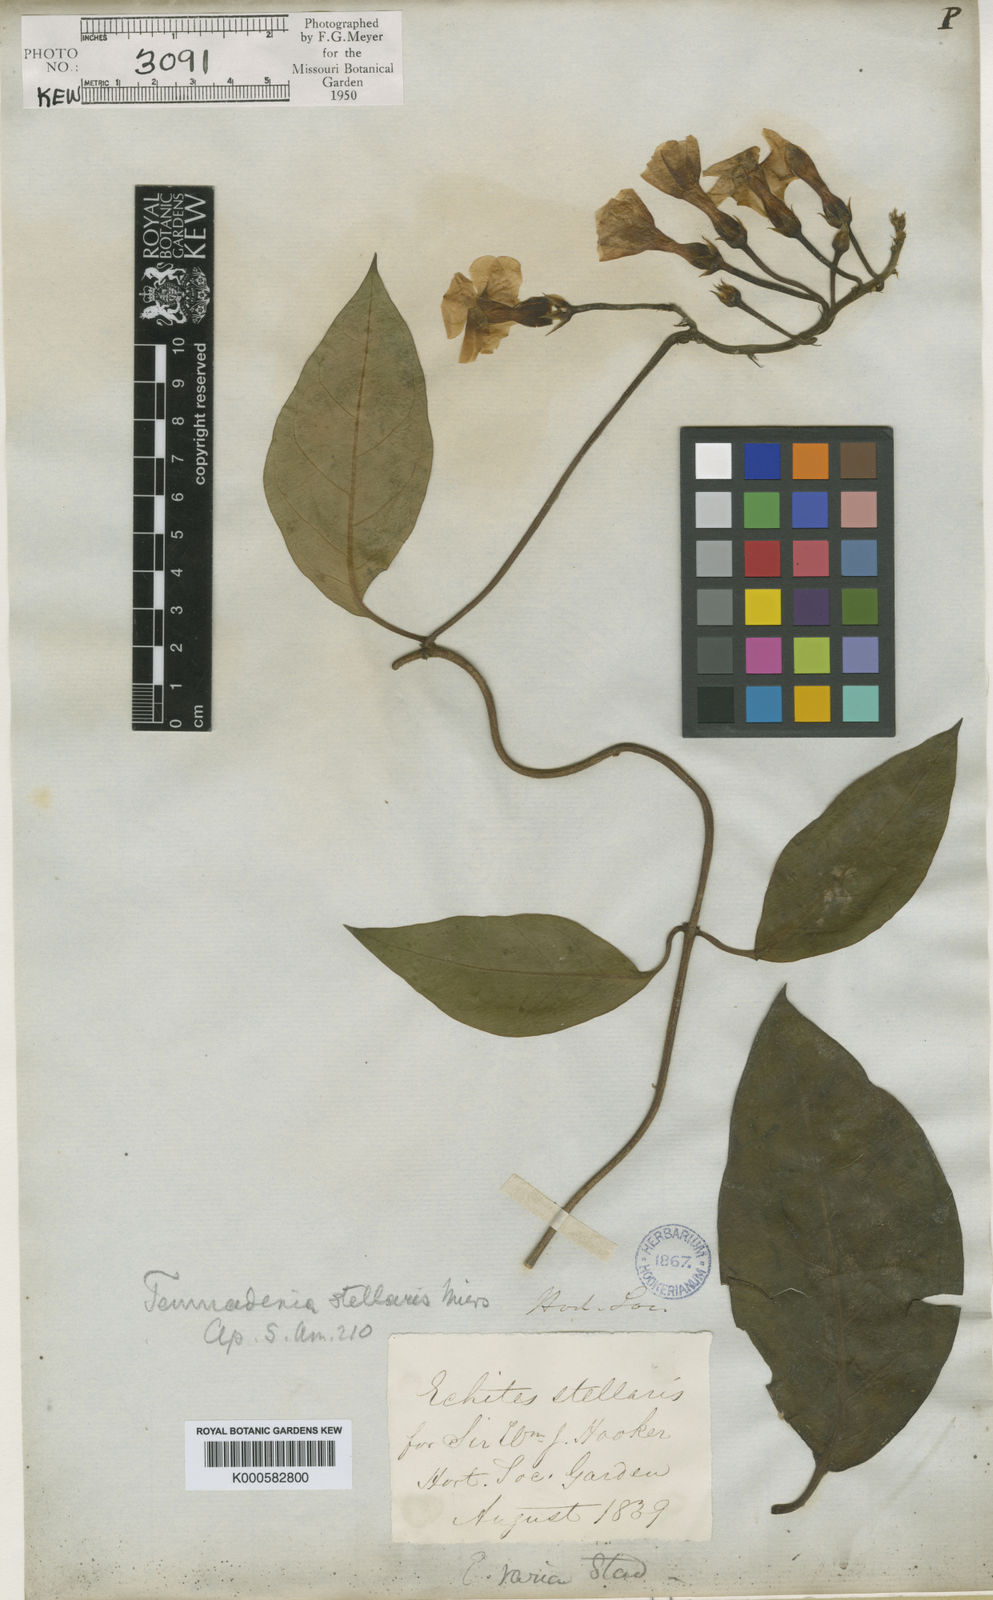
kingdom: Plantae
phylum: Tracheophyta
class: Magnoliopsida
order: Gentianales
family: Apocynaceae
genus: Temnadenia
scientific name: Temnadenia odorifera
